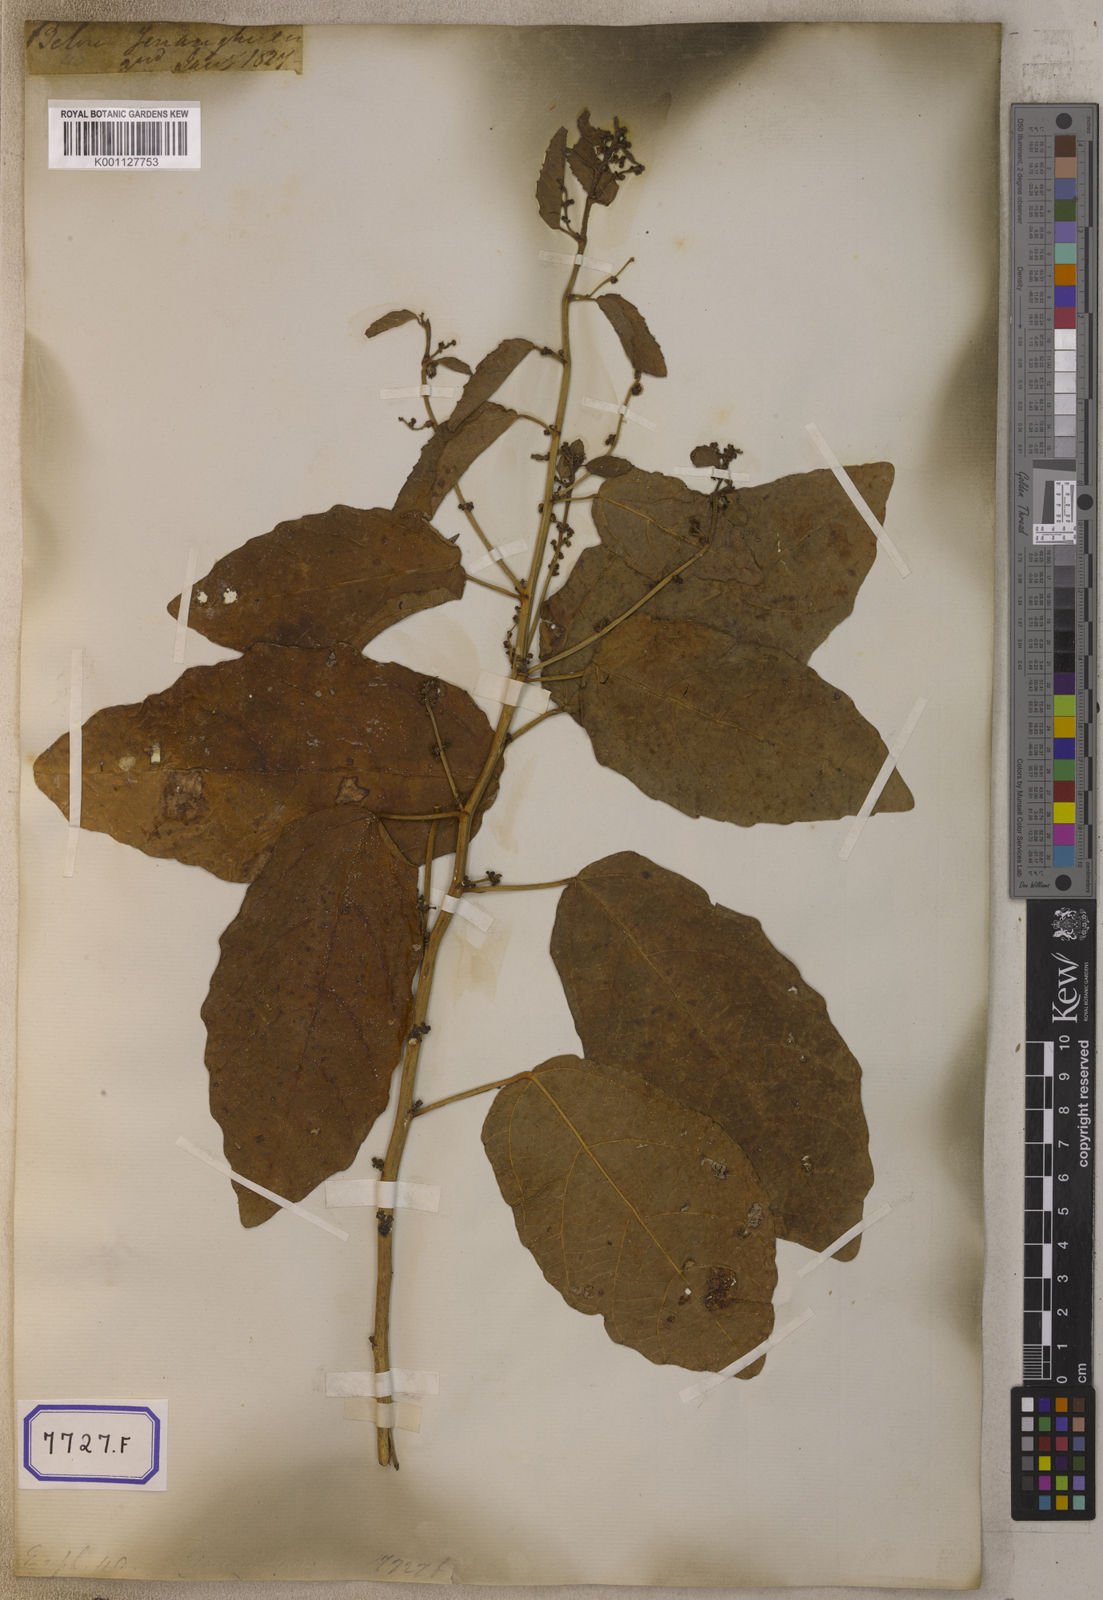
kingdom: Plantae
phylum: Tracheophyta
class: Magnoliopsida
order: Malpighiales
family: Euphorbiaceae
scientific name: Euphorbiaceae
